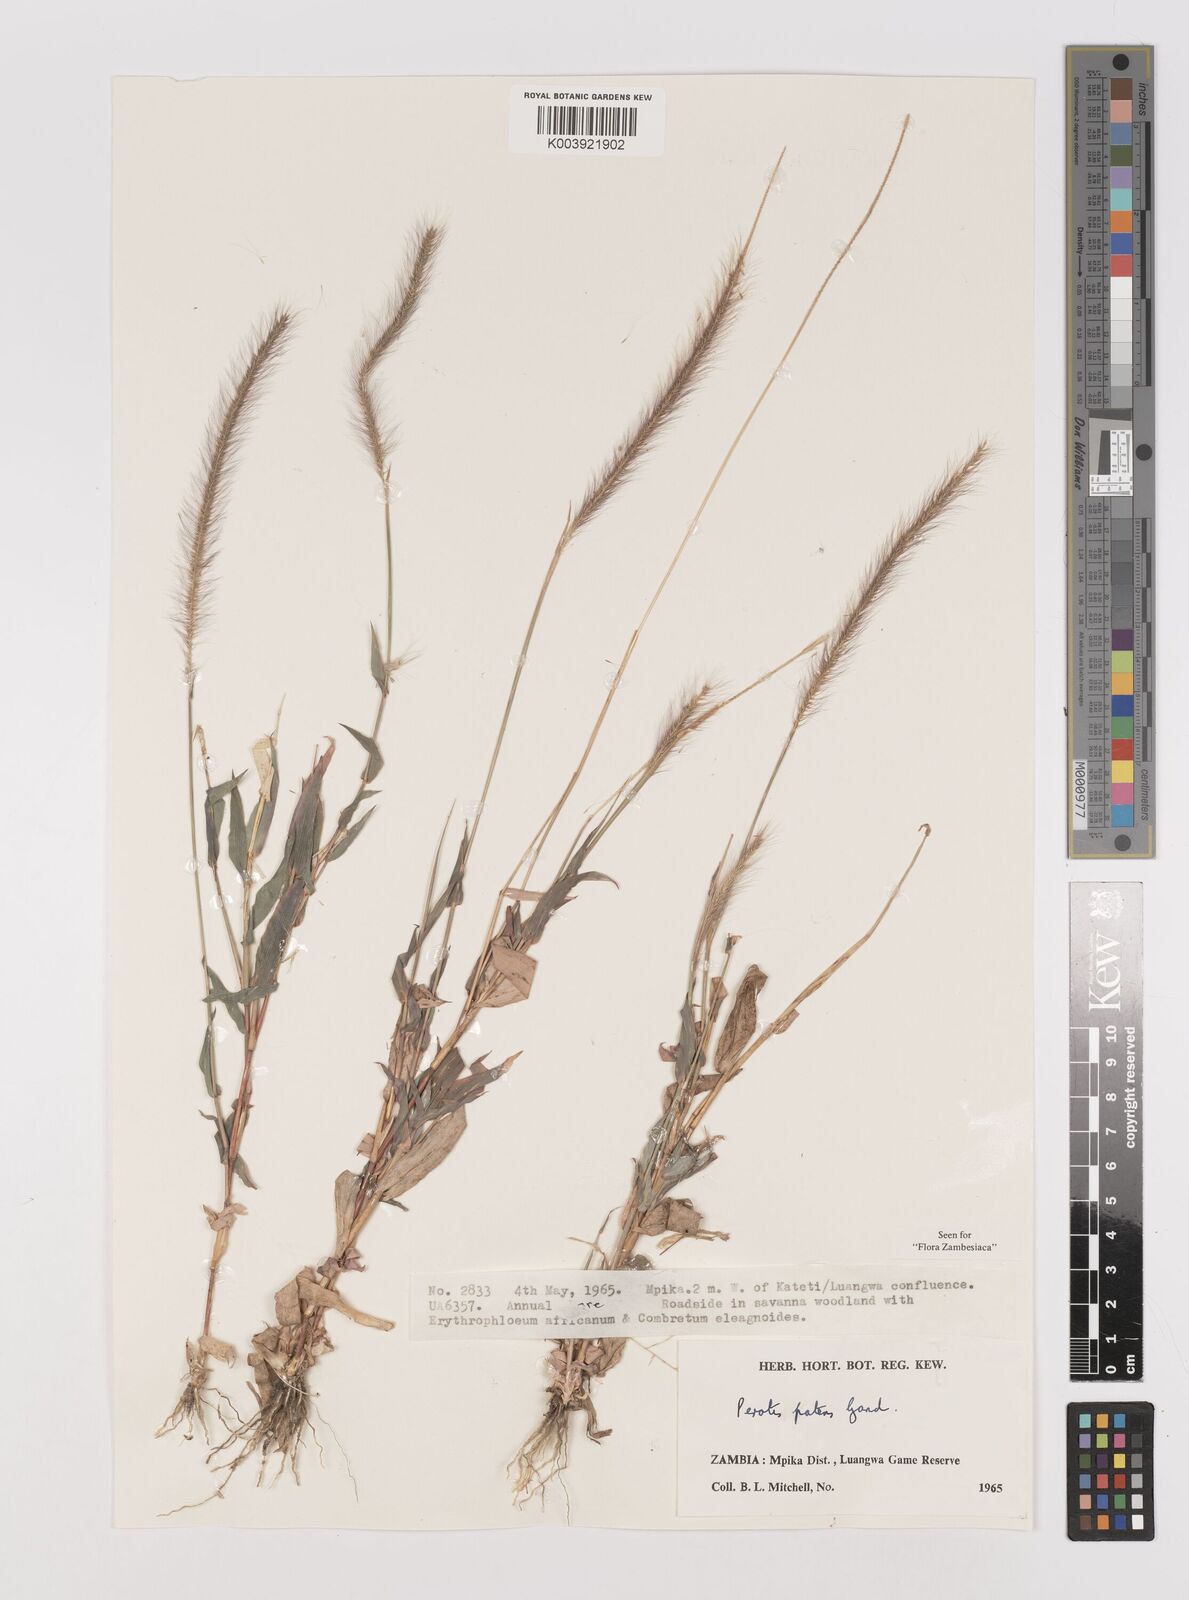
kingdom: Plantae
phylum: Tracheophyta
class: Liliopsida
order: Poales
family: Poaceae
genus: Perotis
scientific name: Perotis patens
